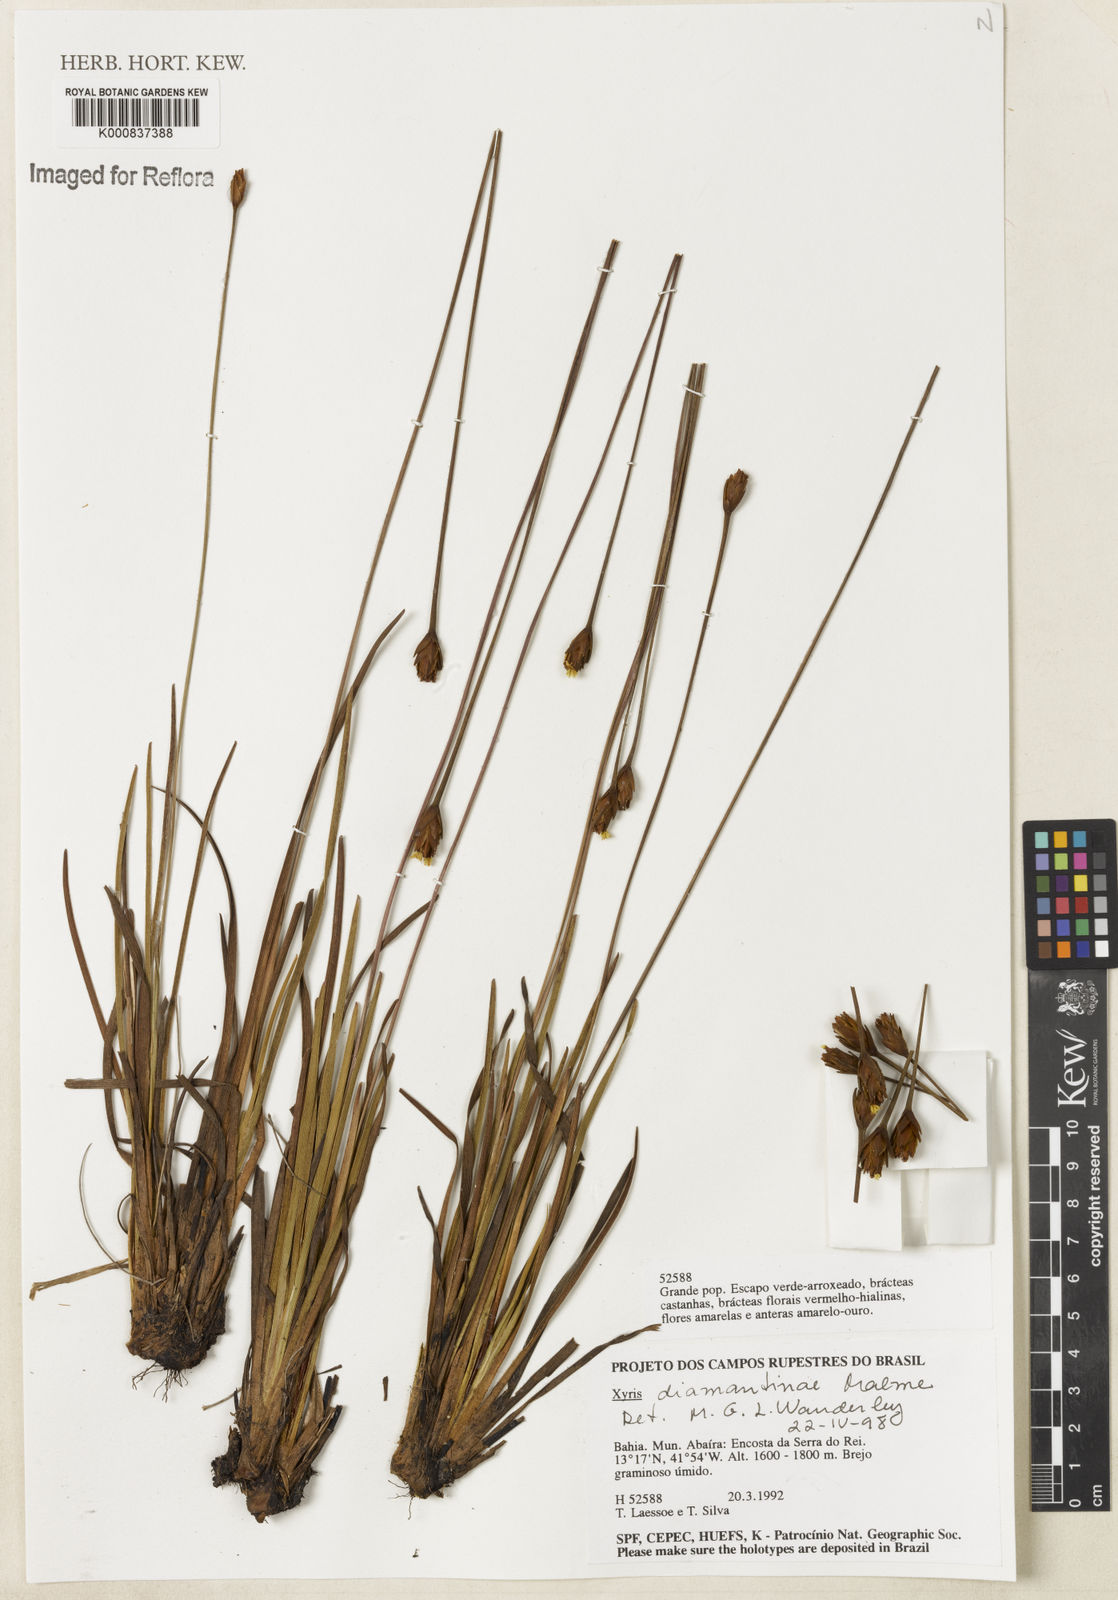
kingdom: Plantae
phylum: Tracheophyta
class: Liliopsida
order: Poales
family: Xyridaceae
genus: Xyris
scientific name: Xyris diamantinae
